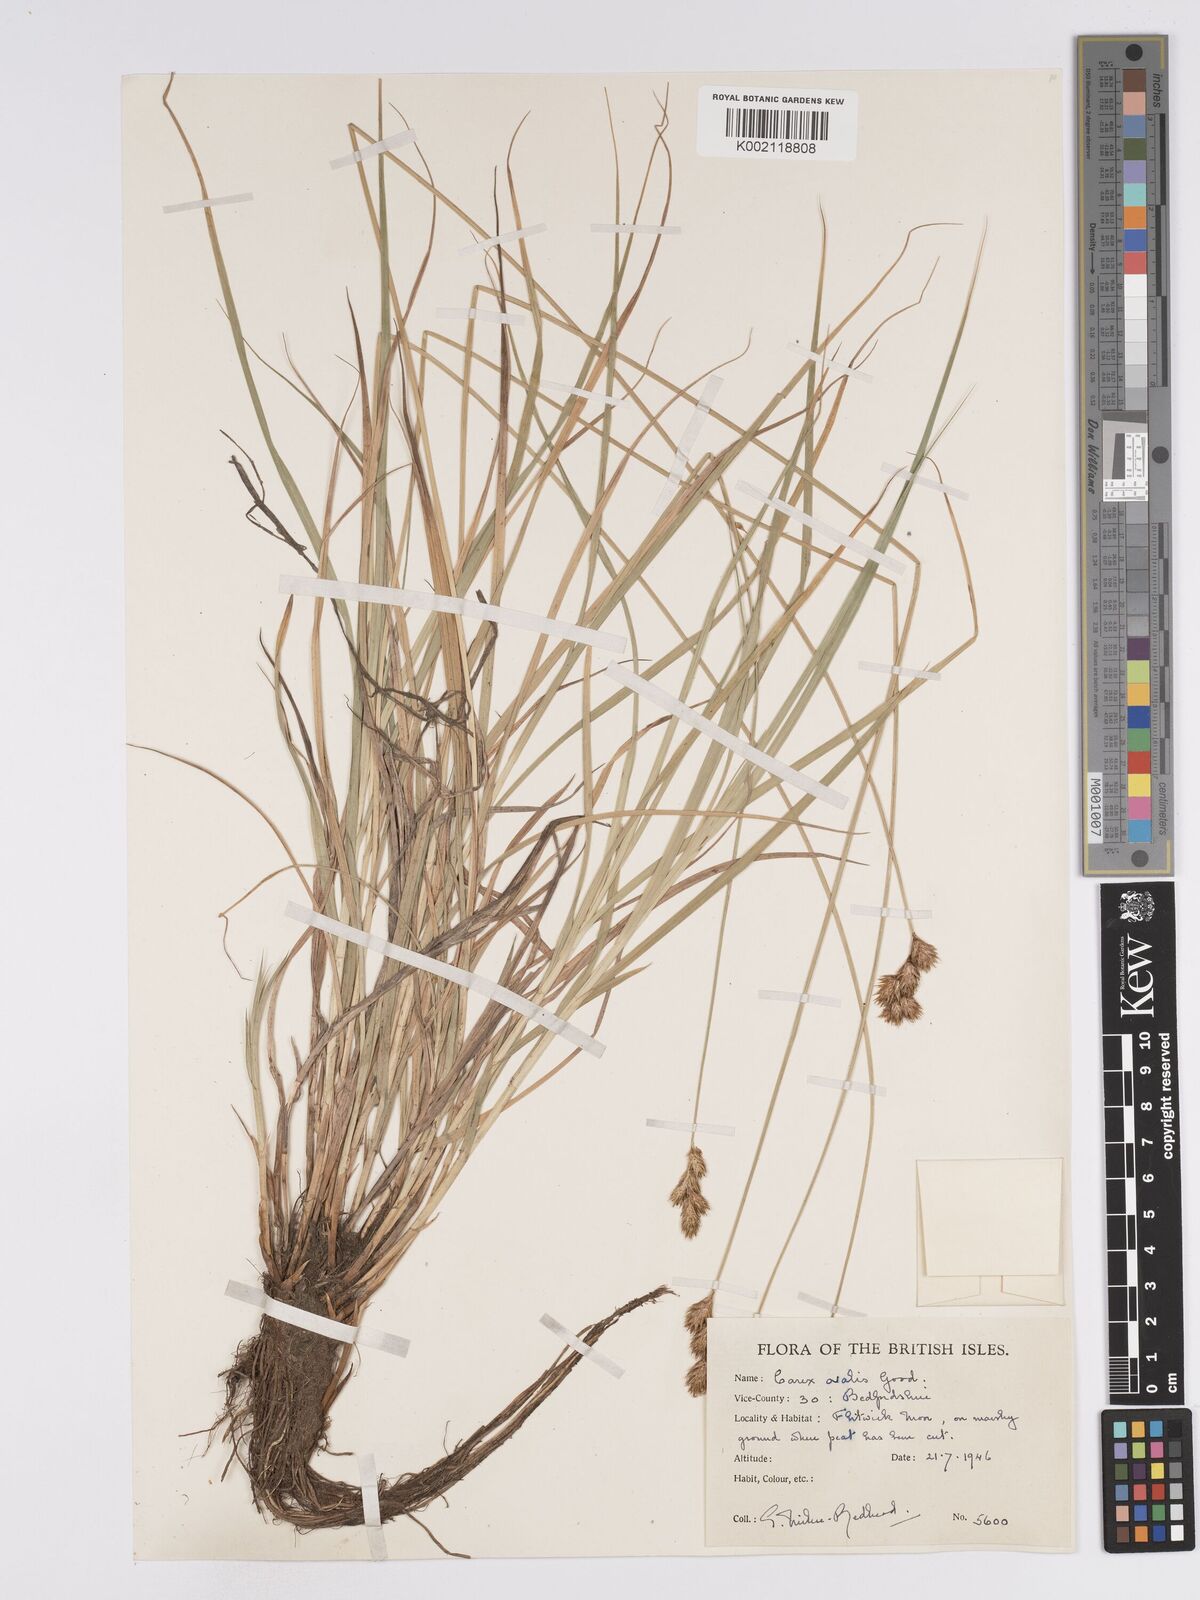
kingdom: Plantae
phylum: Tracheophyta
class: Liliopsida
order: Poales
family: Cyperaceae
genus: Carex
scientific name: Carex leporina
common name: Oval sedge
